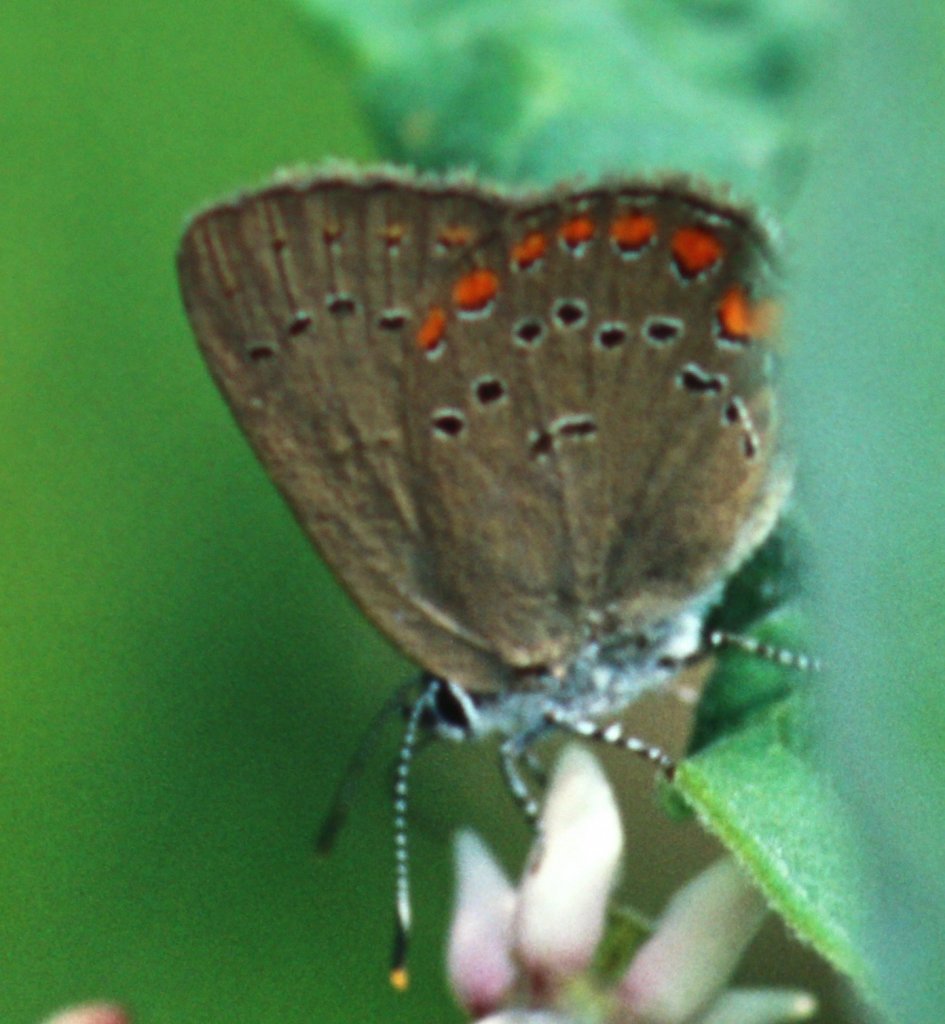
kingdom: Animalia
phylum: Arthropoda
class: Insecta
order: Lepidoptera
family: Lycaenidae
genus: Harkenclenus
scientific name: Harkenclenus titus
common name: Coral Hairstreak
